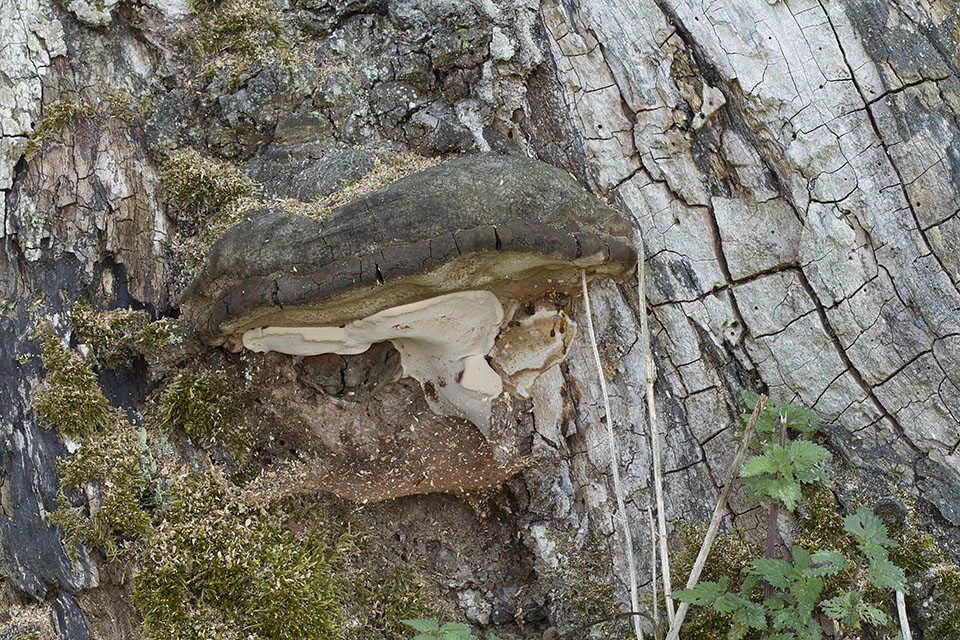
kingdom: Fungi
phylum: Basidiomycota
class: Agaricomycetes
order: Polyporales
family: Polyporaceae
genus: Ganoderma
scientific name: Ganoderma adspersum
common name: grov lakporesvamp
